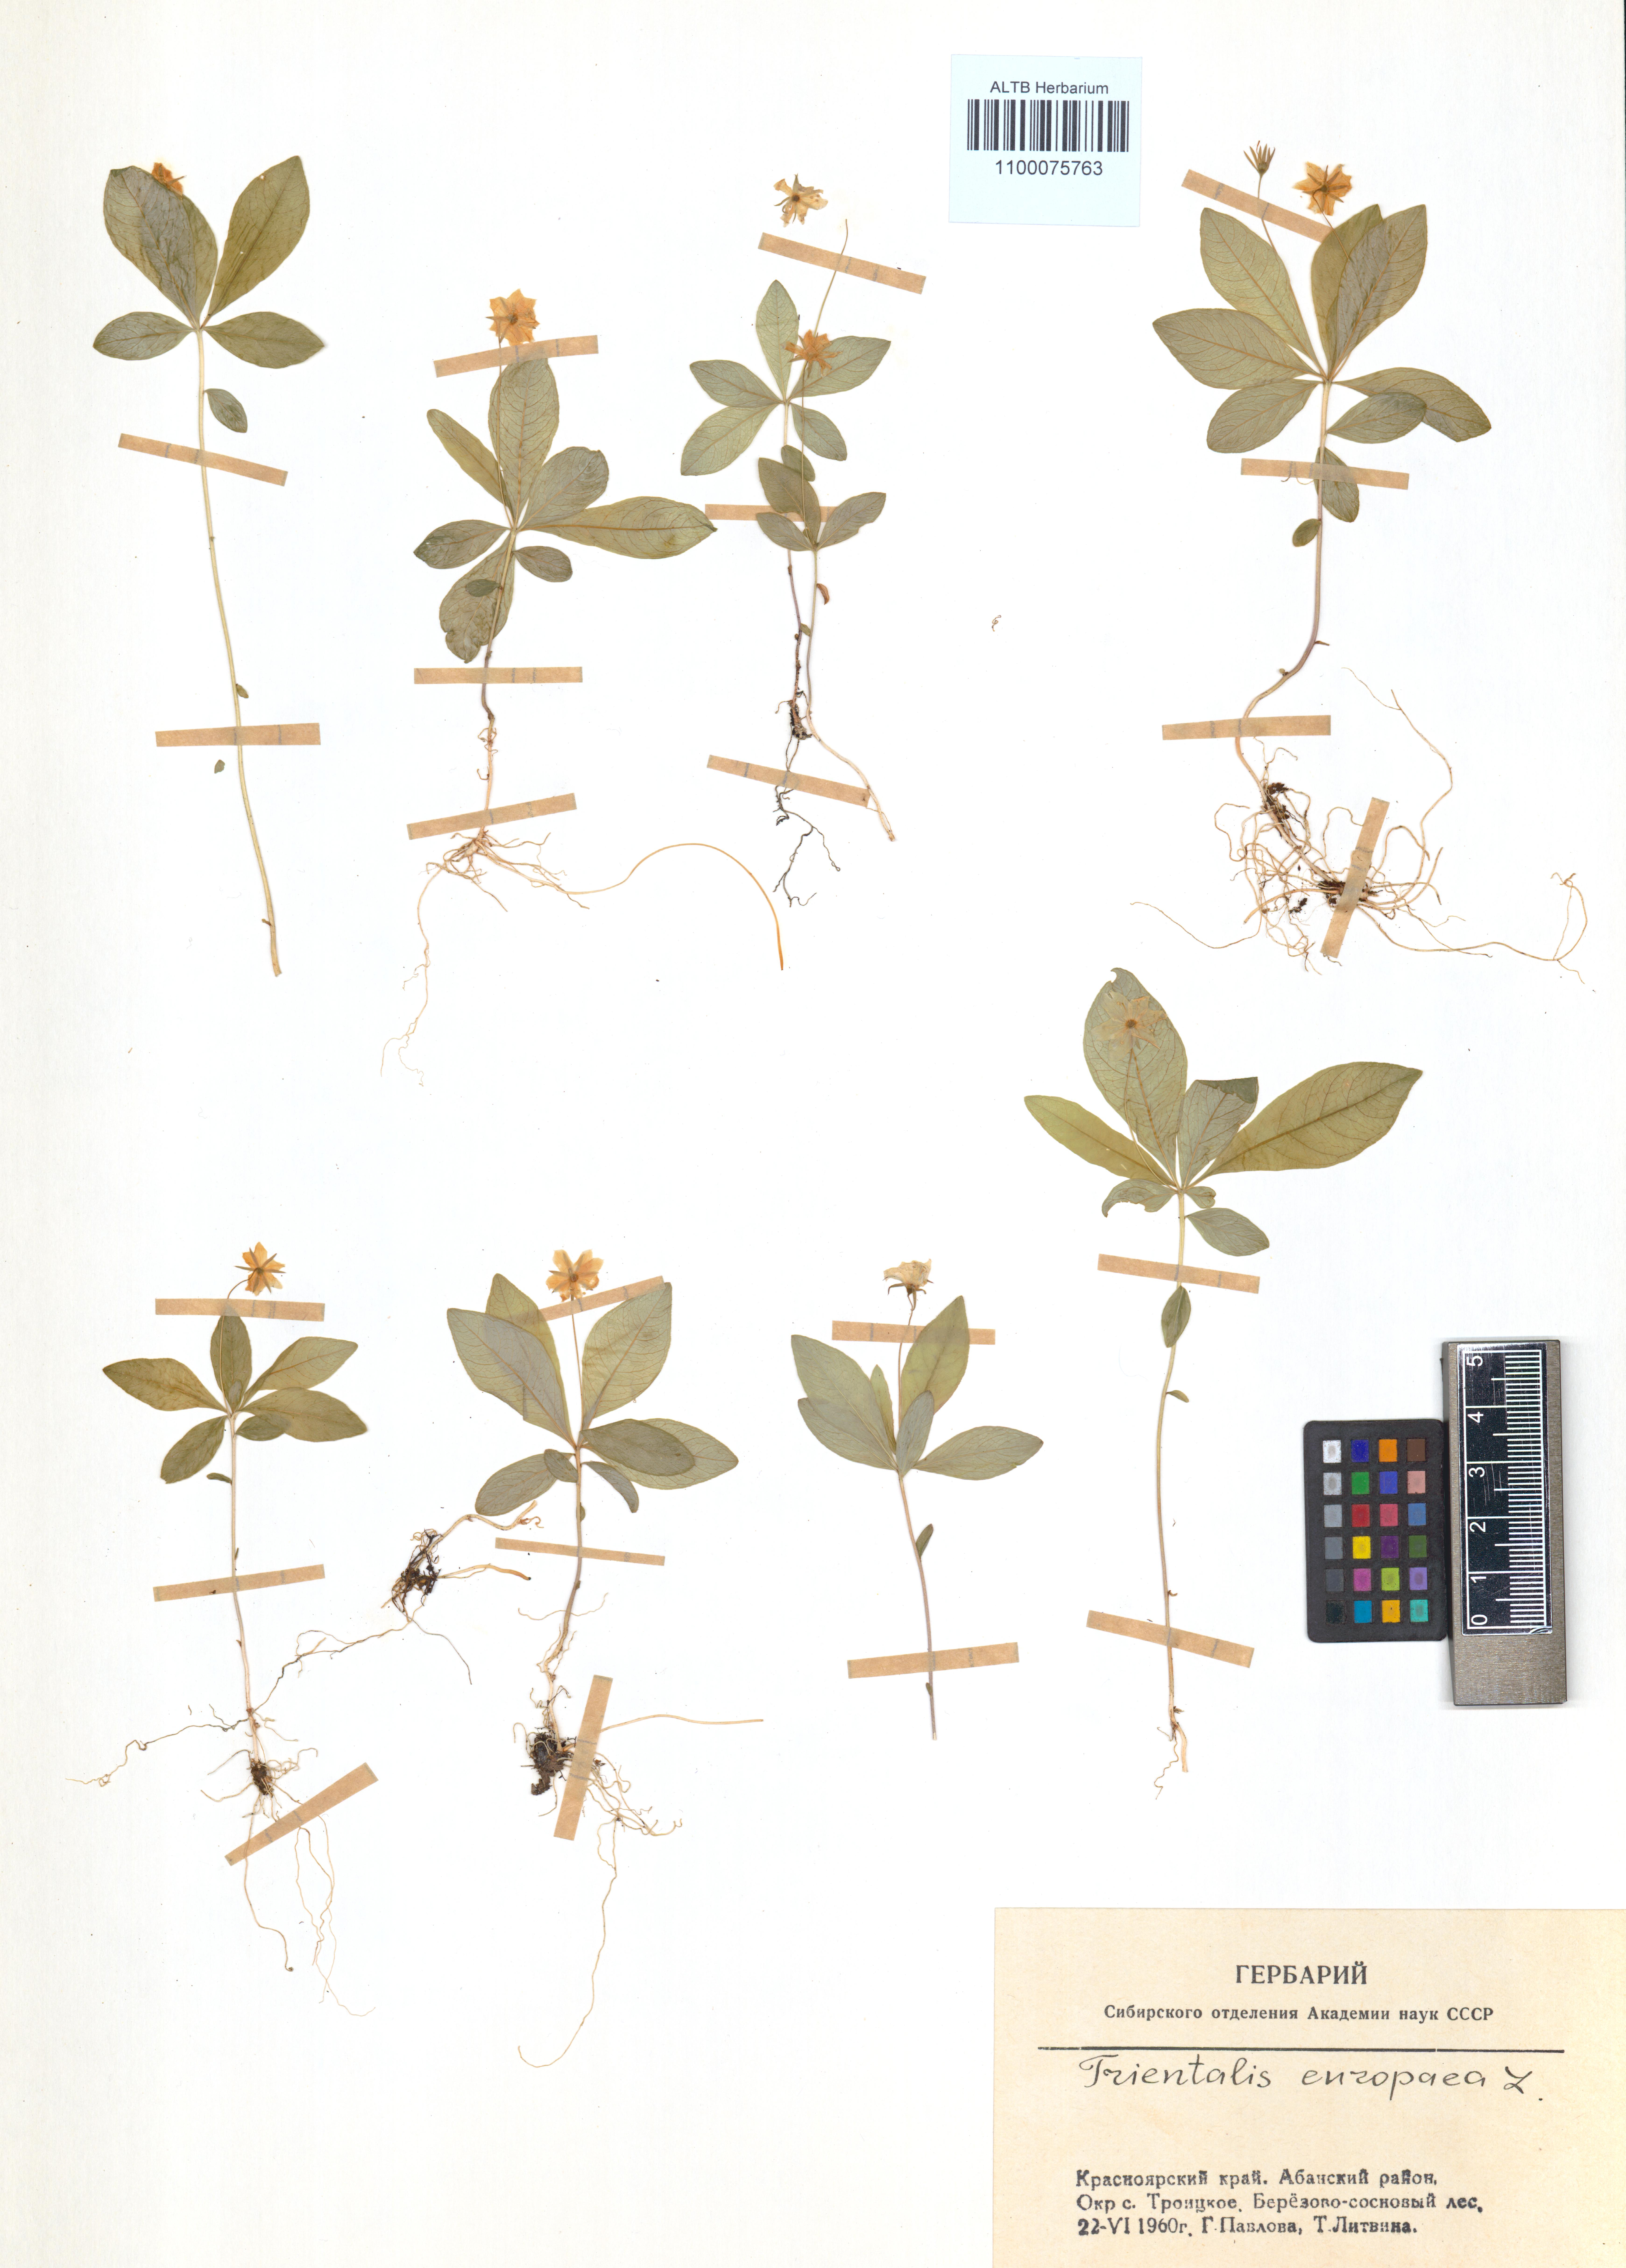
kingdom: Plantae
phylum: Tracheophyta
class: Magnoliopsida
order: Ericales
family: Primulaceae
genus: Lysimachia
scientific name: Lysimachia europaea
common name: Arctic starflower
